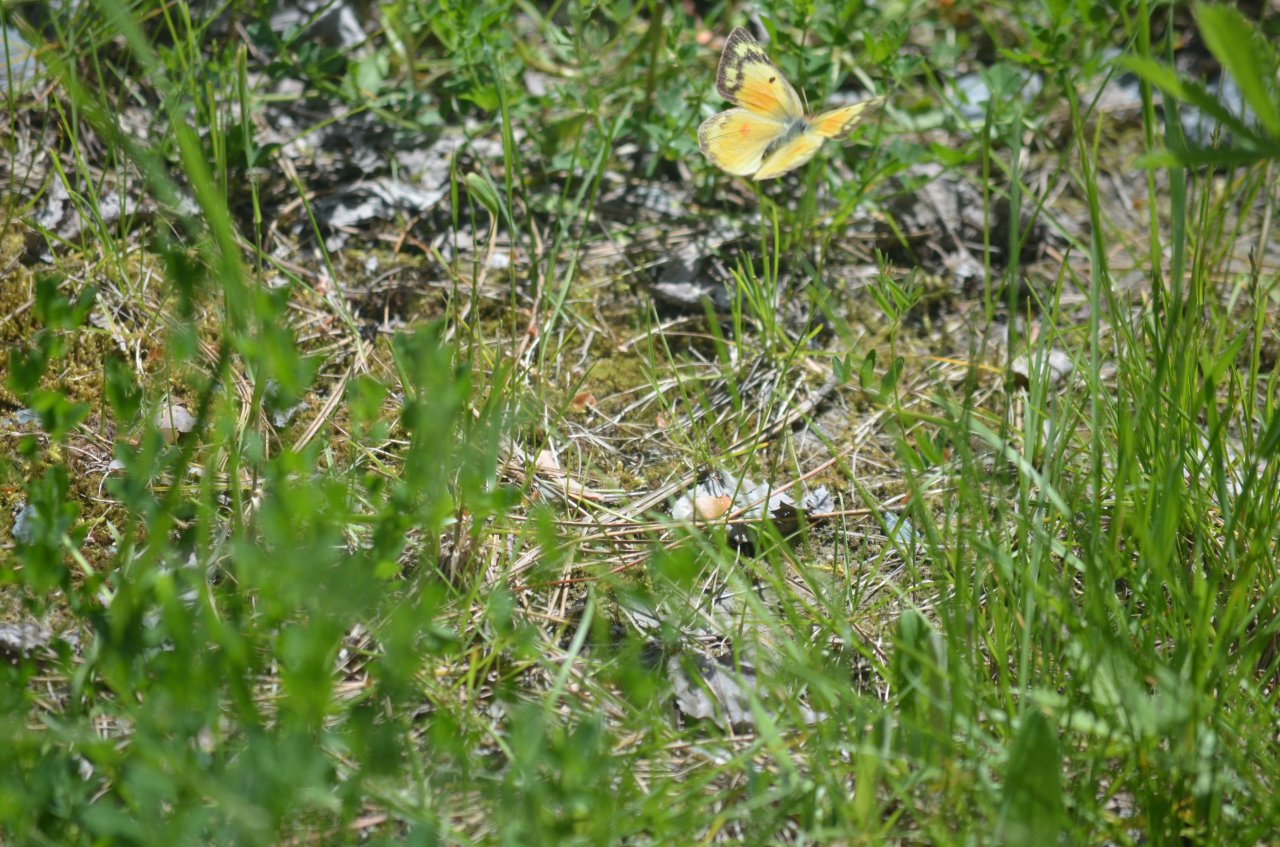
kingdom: Animalia
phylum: Arthropoda
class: Insecta
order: Lepidoptera
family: Pieridae
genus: Colias
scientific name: Colias eurytheme
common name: Orange Sulphur
